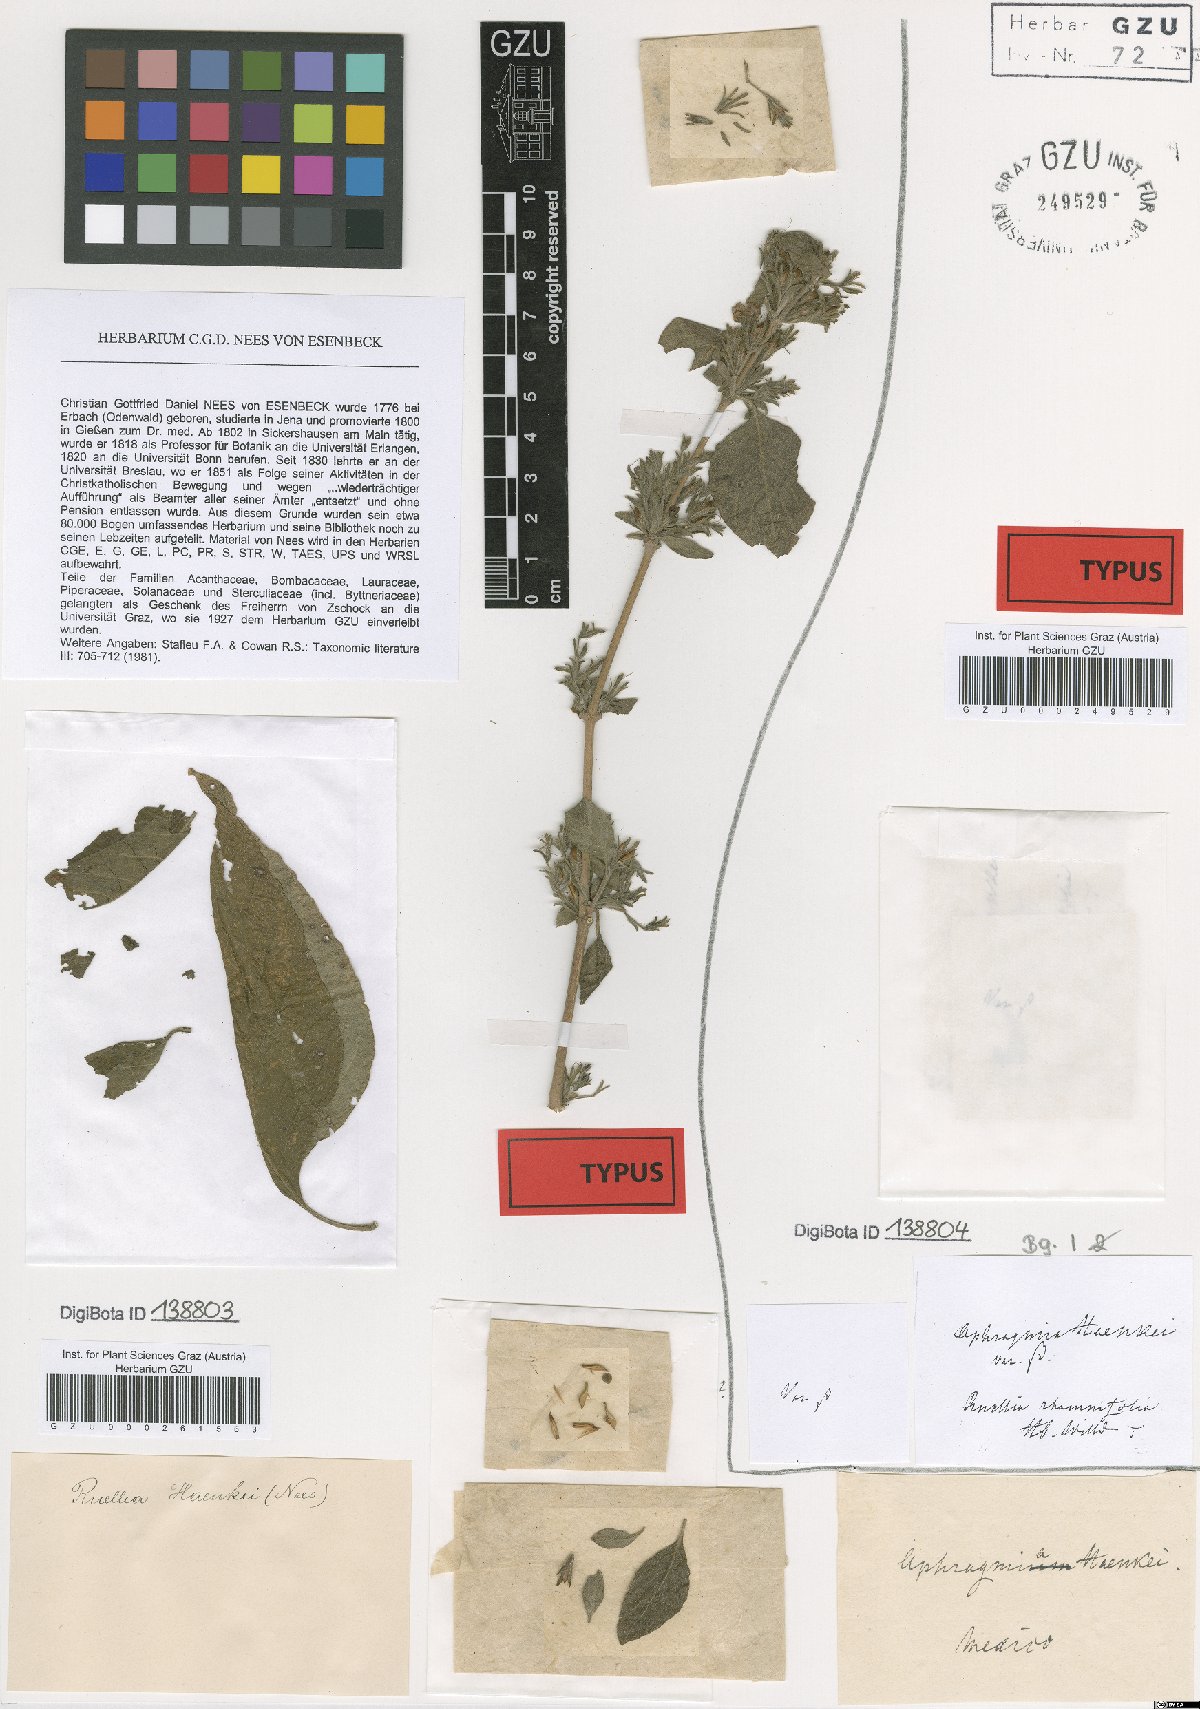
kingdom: Plantae
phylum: Tracheophyta
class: Magnoliopsida
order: Lamiales
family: Acanthaceae
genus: Ruellia
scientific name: Ruellia inundata
